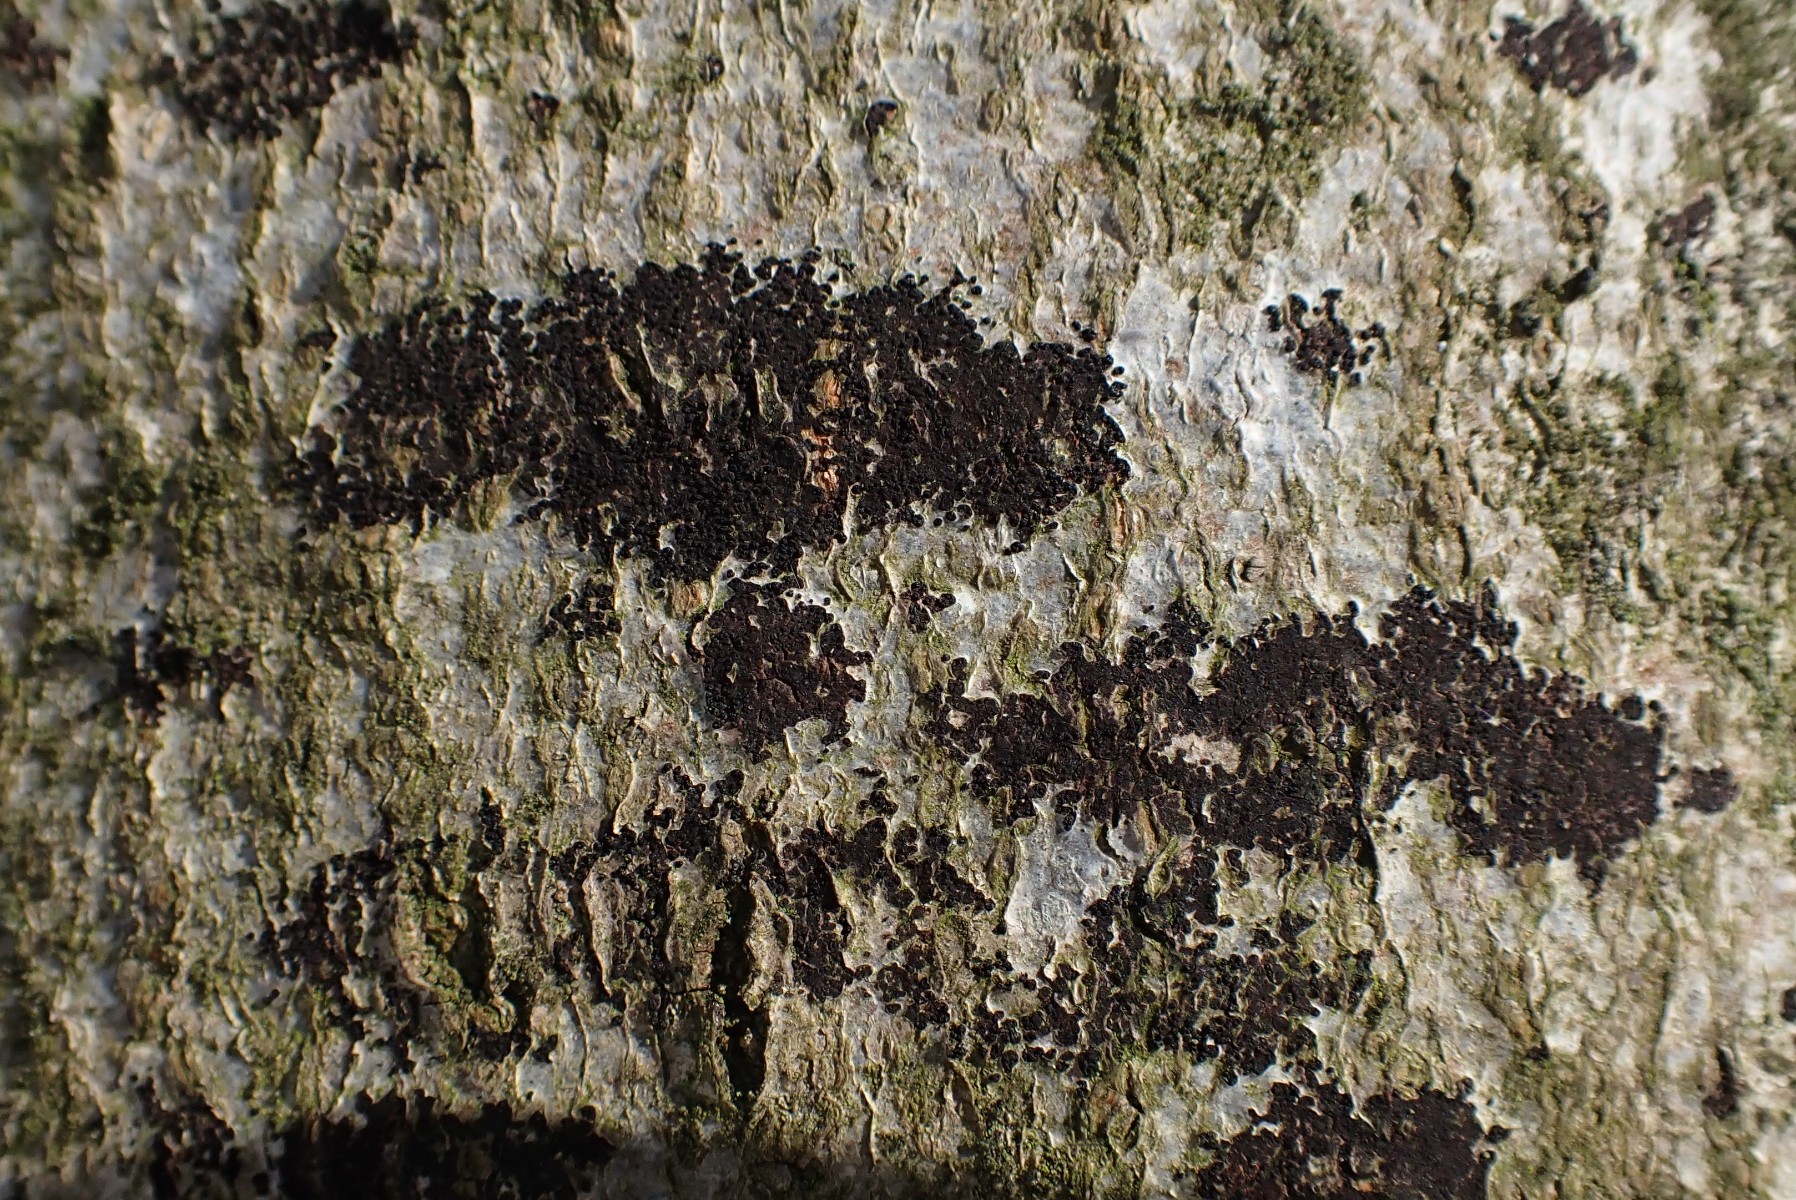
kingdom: Fungi
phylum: Ascomycota
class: Leotiomycetes
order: Rhytismatales
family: Ascodichaenaceae
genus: Ascodichaena
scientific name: Ascodichaena rugosa
